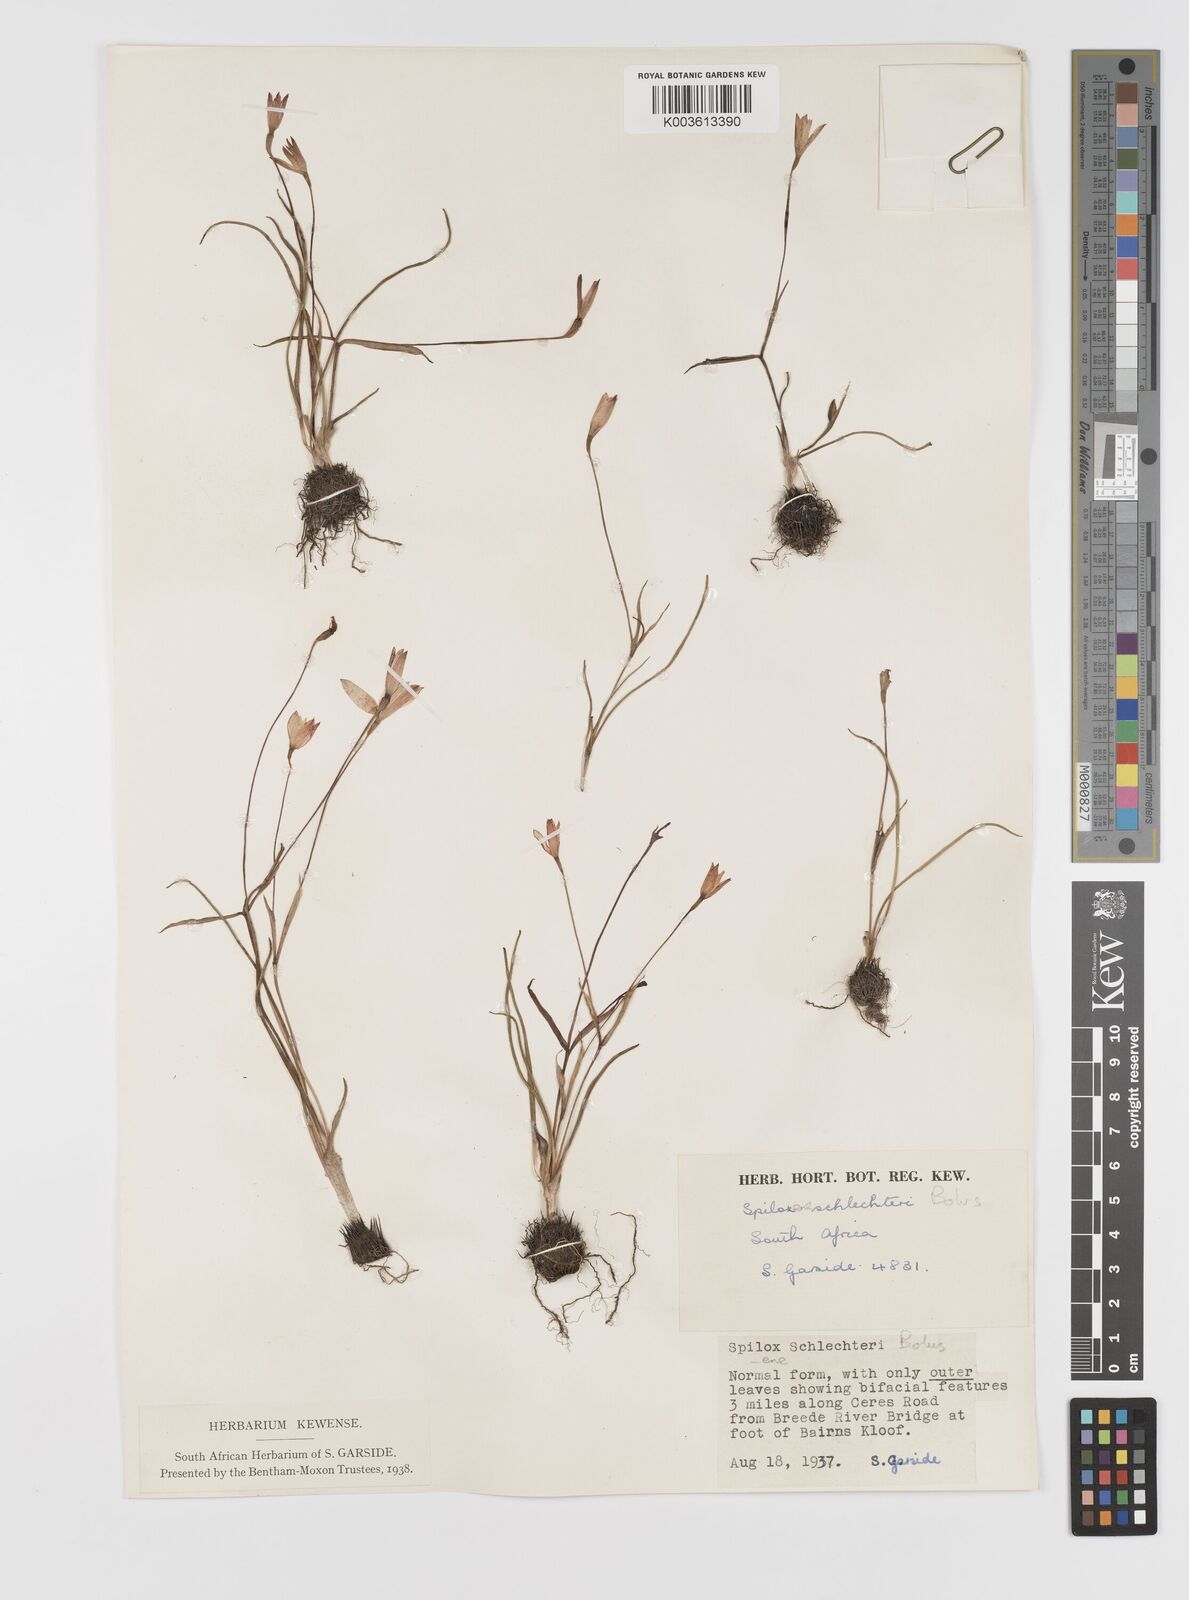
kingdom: Plantae
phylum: Tracheophyta
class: Liliopsida
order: Asparagales
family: Hypoxidaceae
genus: Pauridia
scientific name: Pauridia affinis
